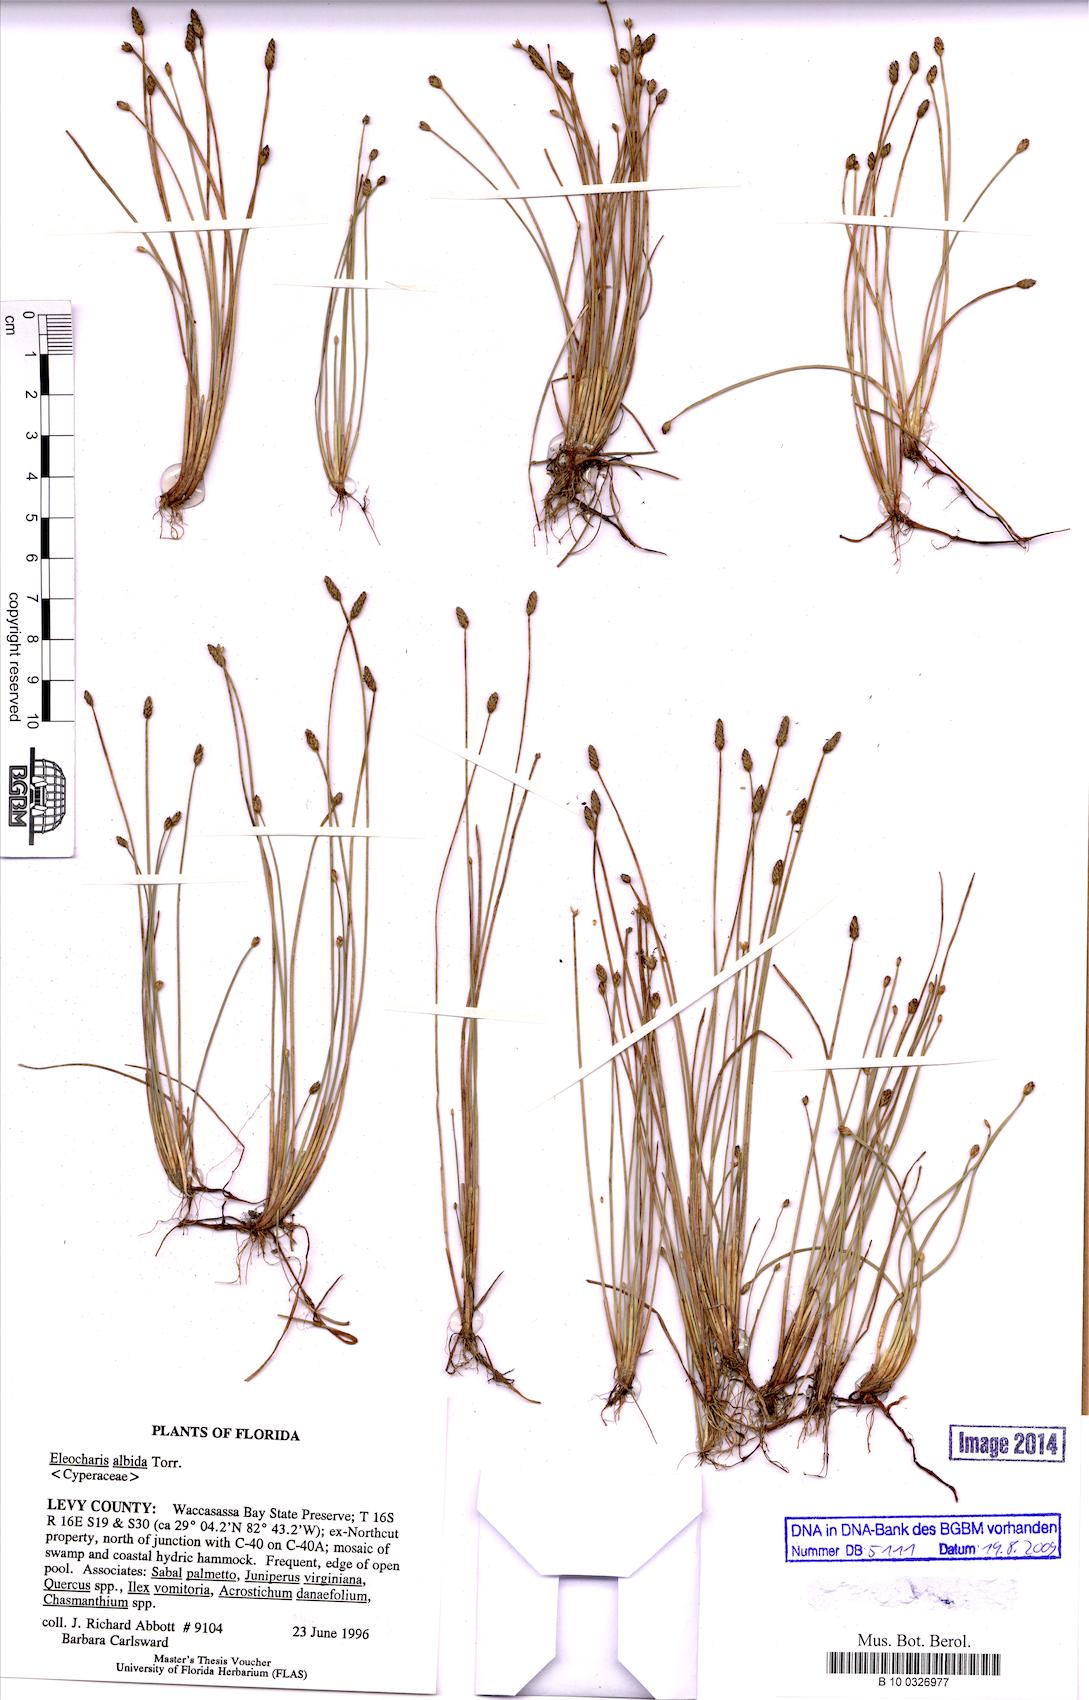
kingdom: Plantae
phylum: Tracheophyta
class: Liliopsida
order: Poales
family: Cyperaceae
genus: Eleocharis
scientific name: Eleocharis albida
